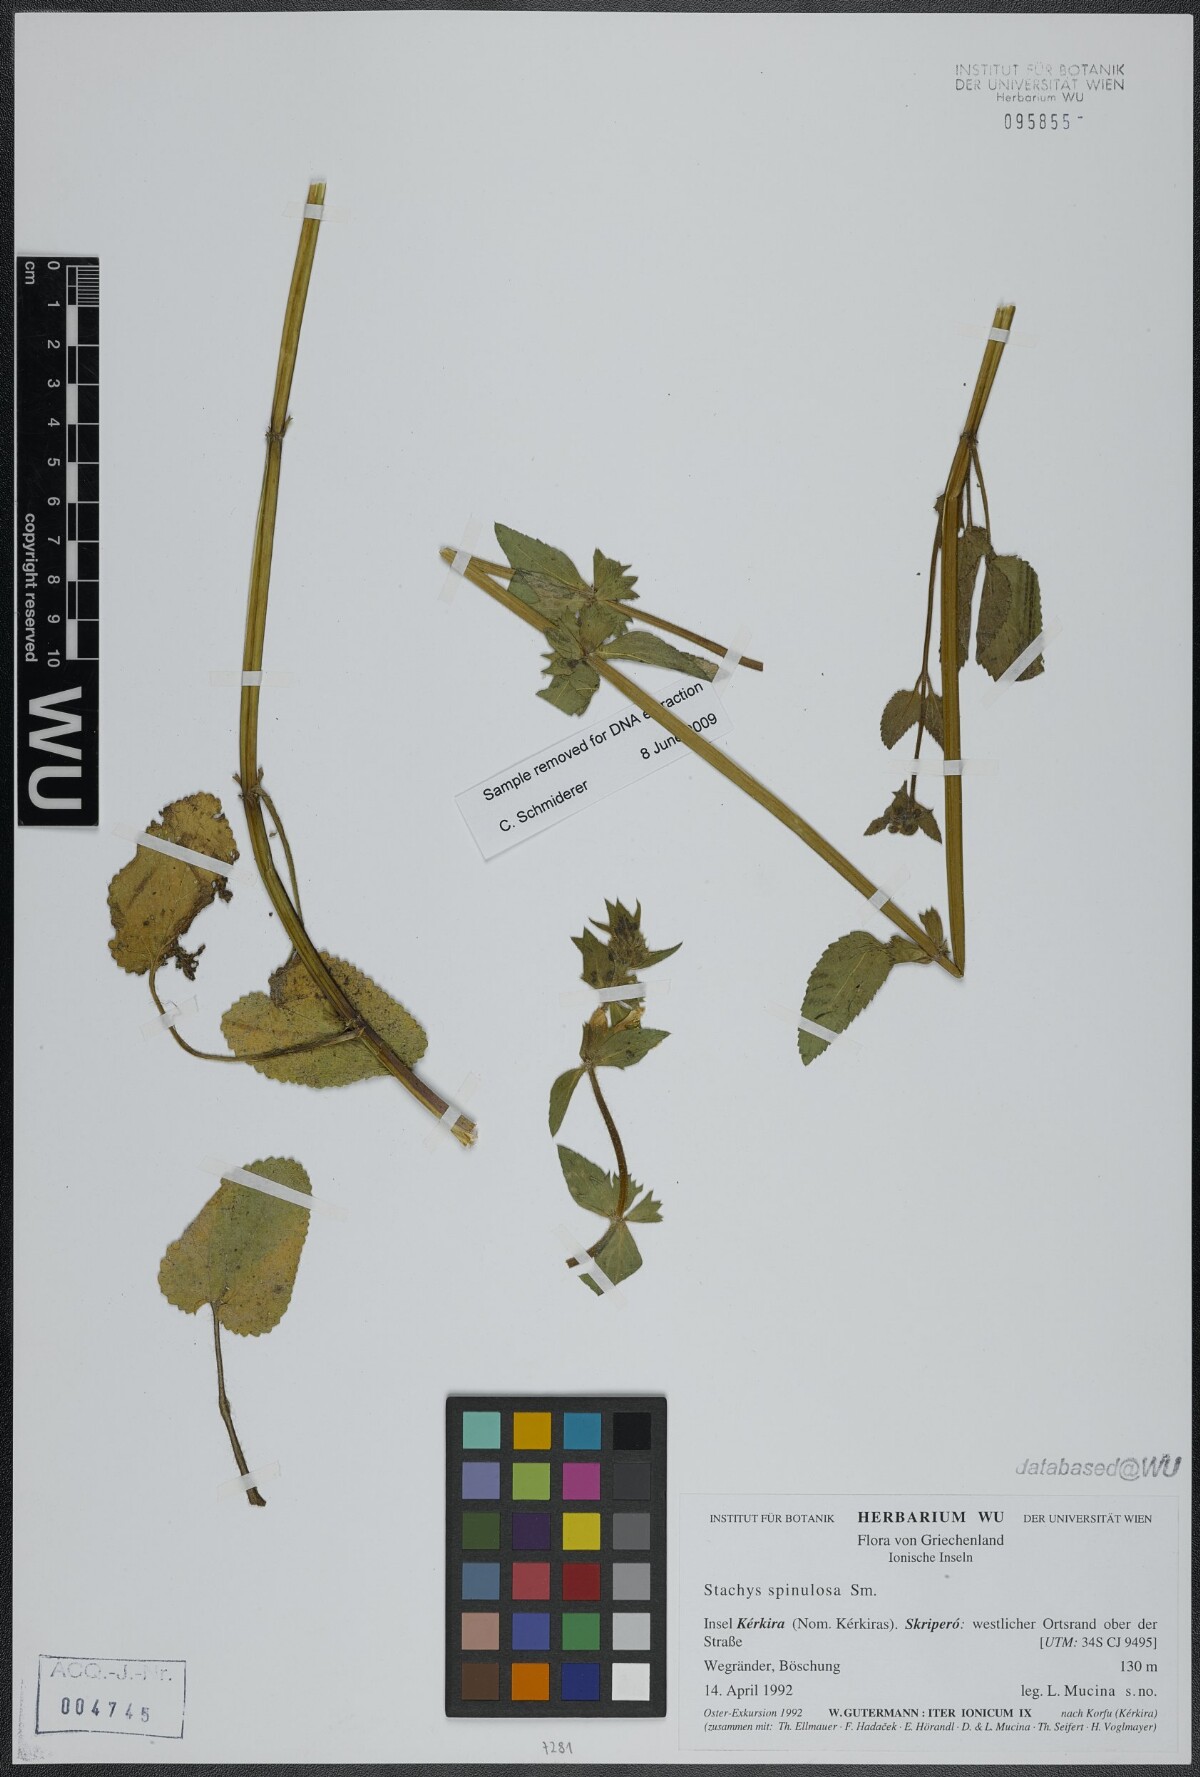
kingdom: Plantae
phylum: Tracheophyta
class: Magnoliopsida
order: Lamiales
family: Lamiaceae
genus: Stachys
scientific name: Stachys spinulosa
